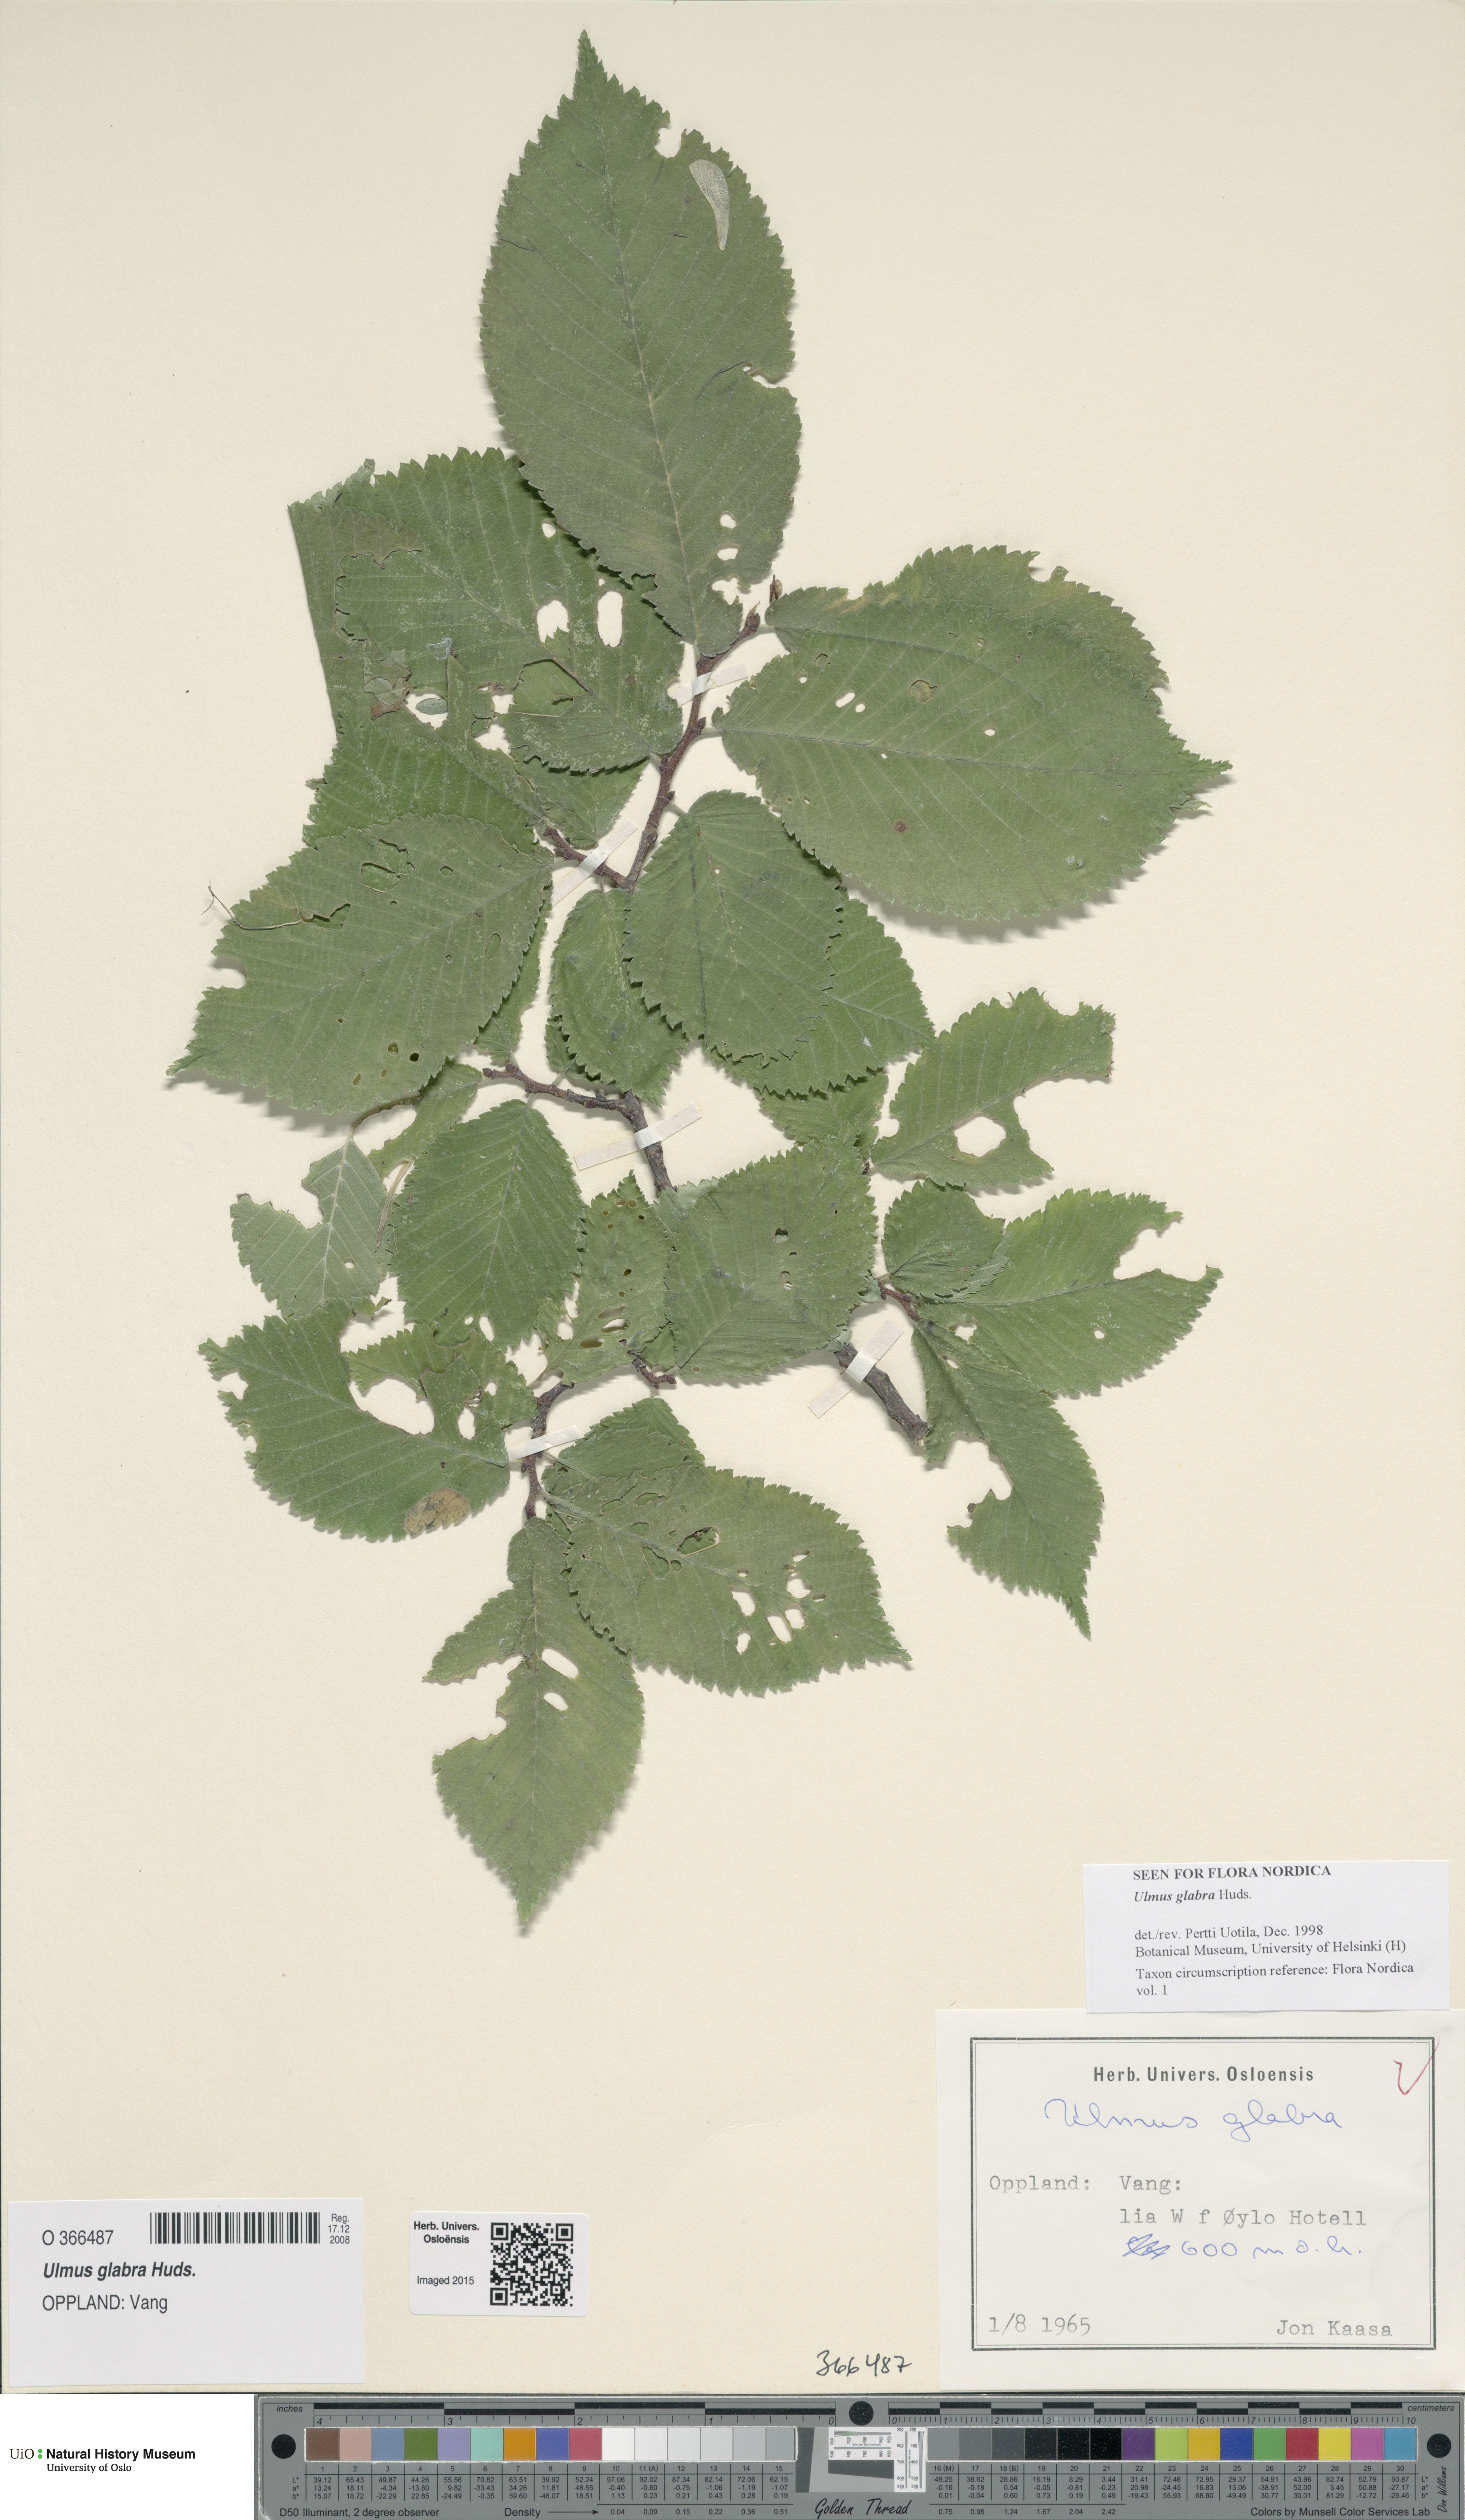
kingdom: Plantae
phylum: Tracheophyta
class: Magnoliopsida
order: Rosales
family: Ulmaceae
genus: Ulmus
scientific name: Ulmus glabra
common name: Wych elm
